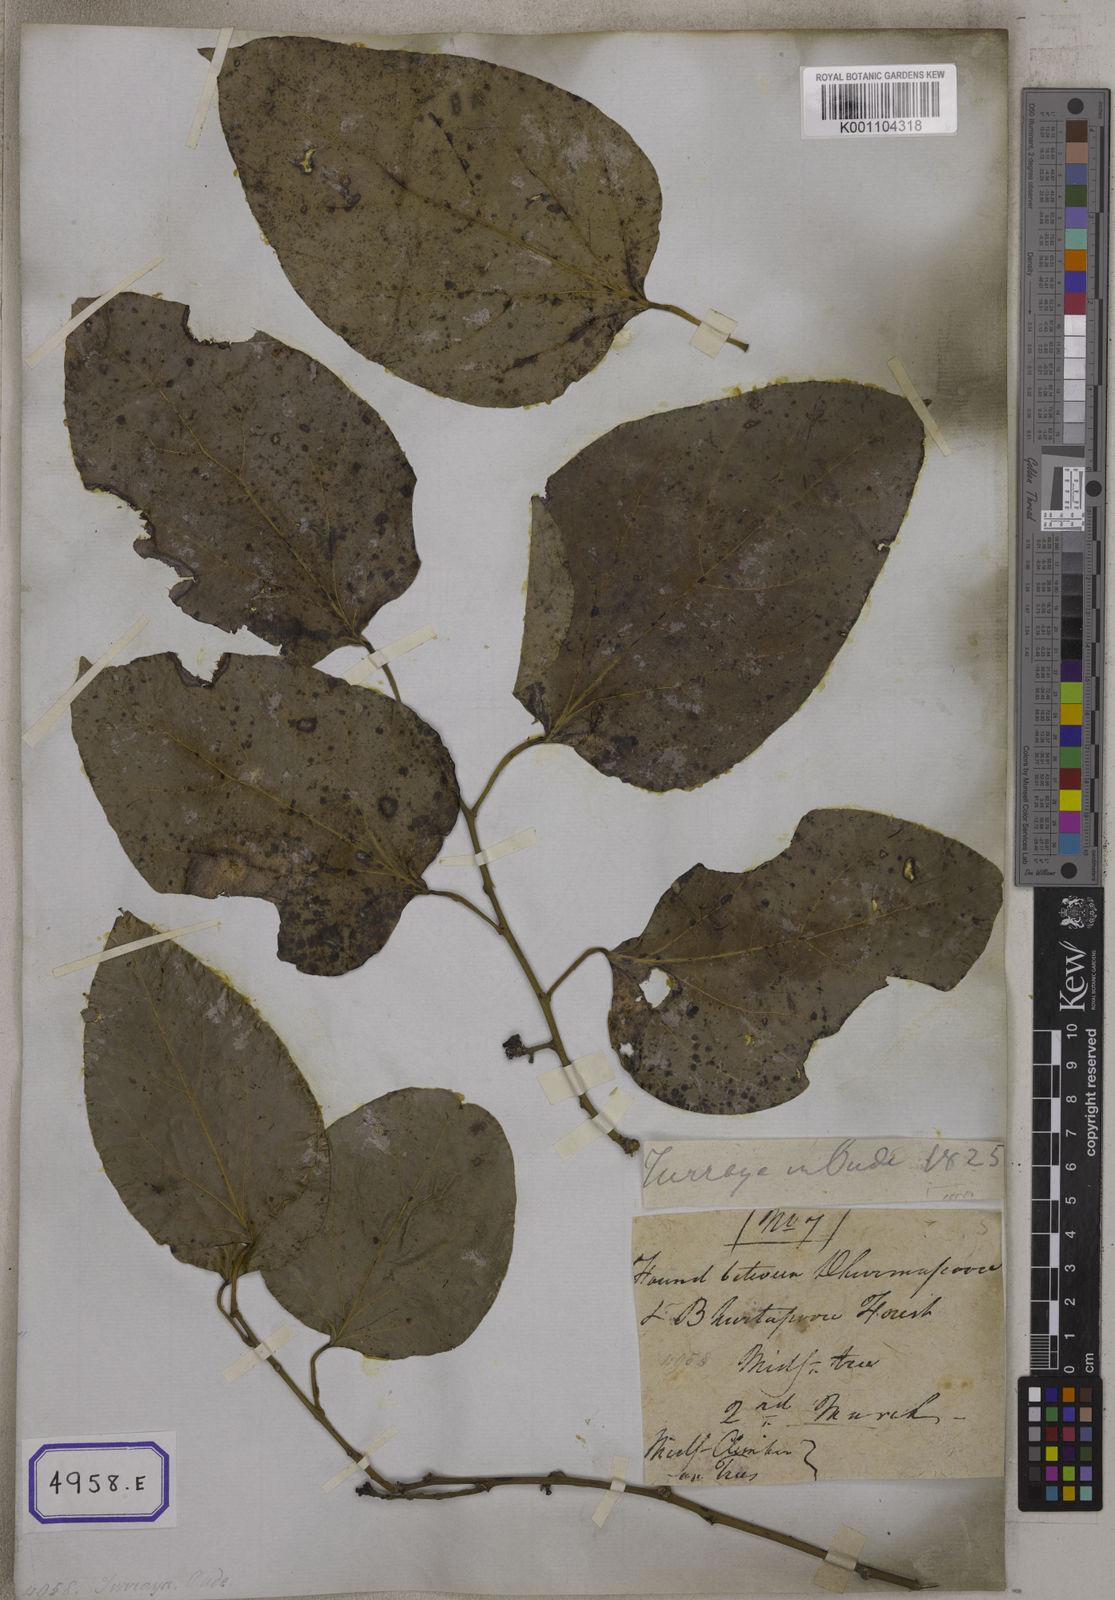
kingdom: Plantae
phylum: Tracheophyta
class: Magnoliopsida
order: Ranunculales
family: Menispermaceae
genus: Cocculus
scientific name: Cocculus
